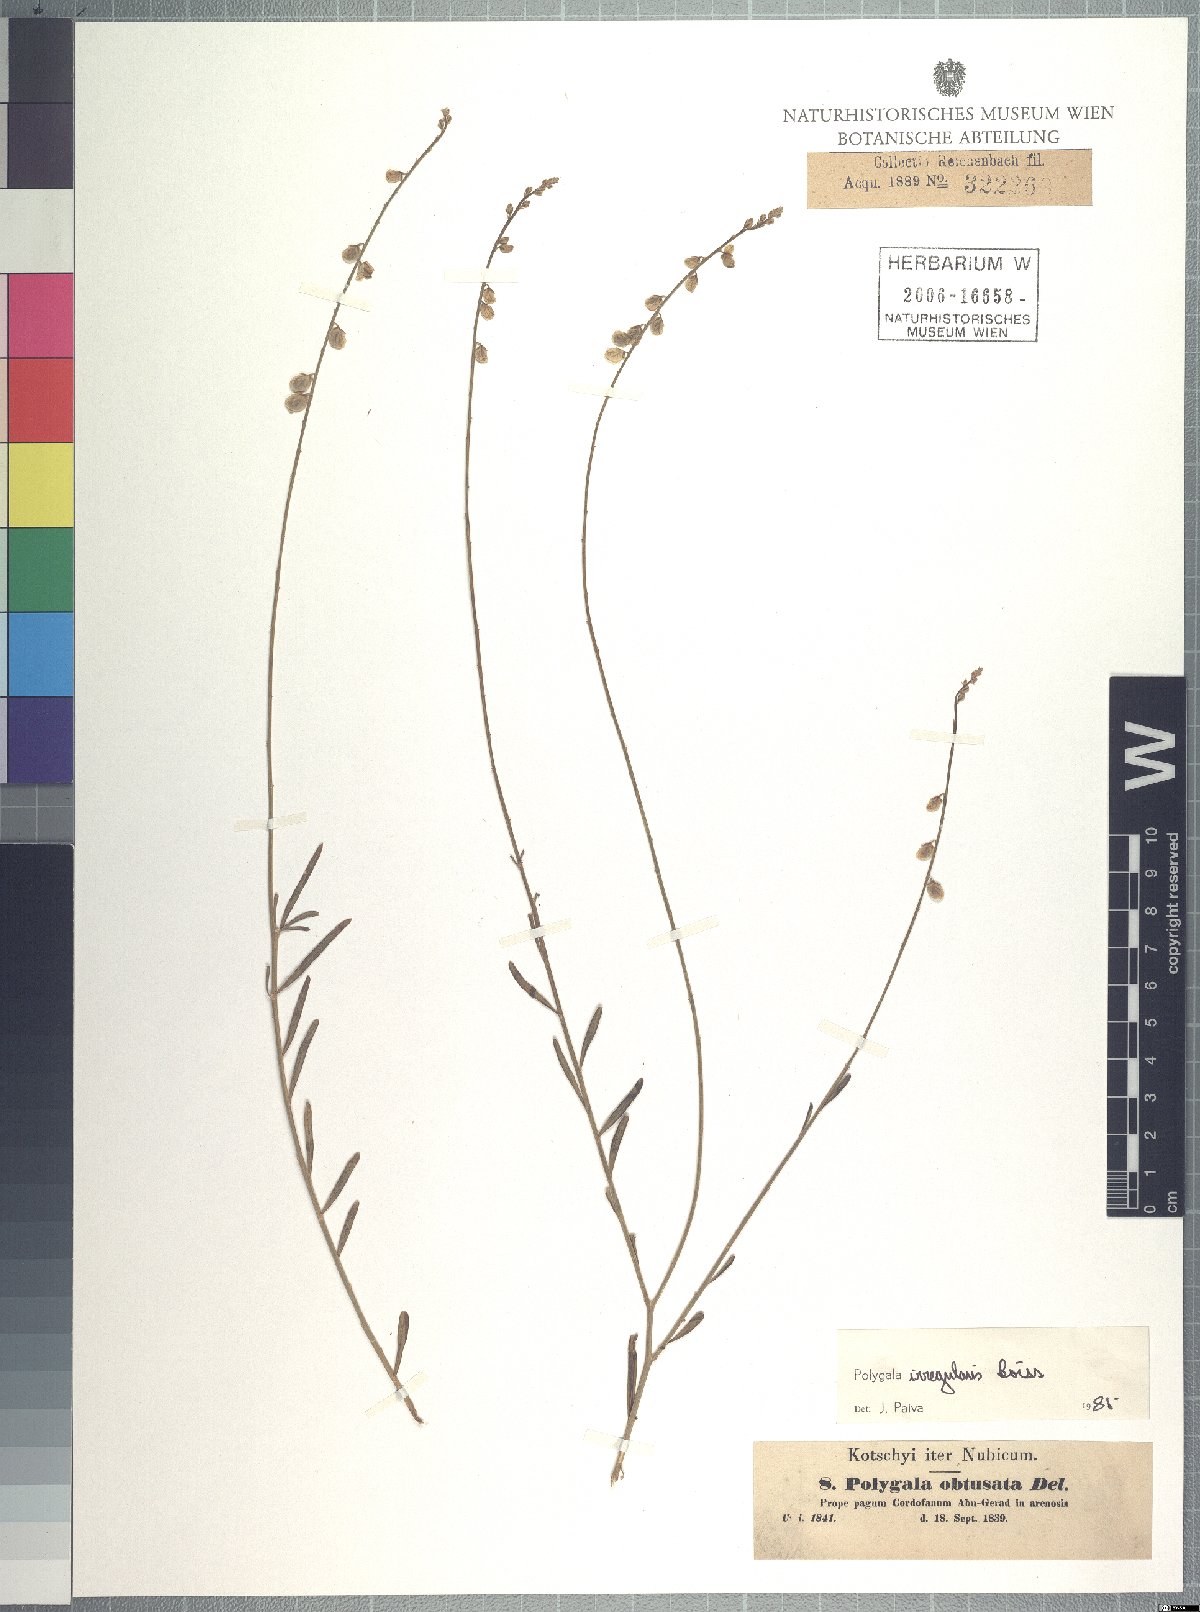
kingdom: Plantae
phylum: Tracheophyta
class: Magnoliopsida
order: Fabales
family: Polygalaceae
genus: Polygala
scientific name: Polygala irregularis
